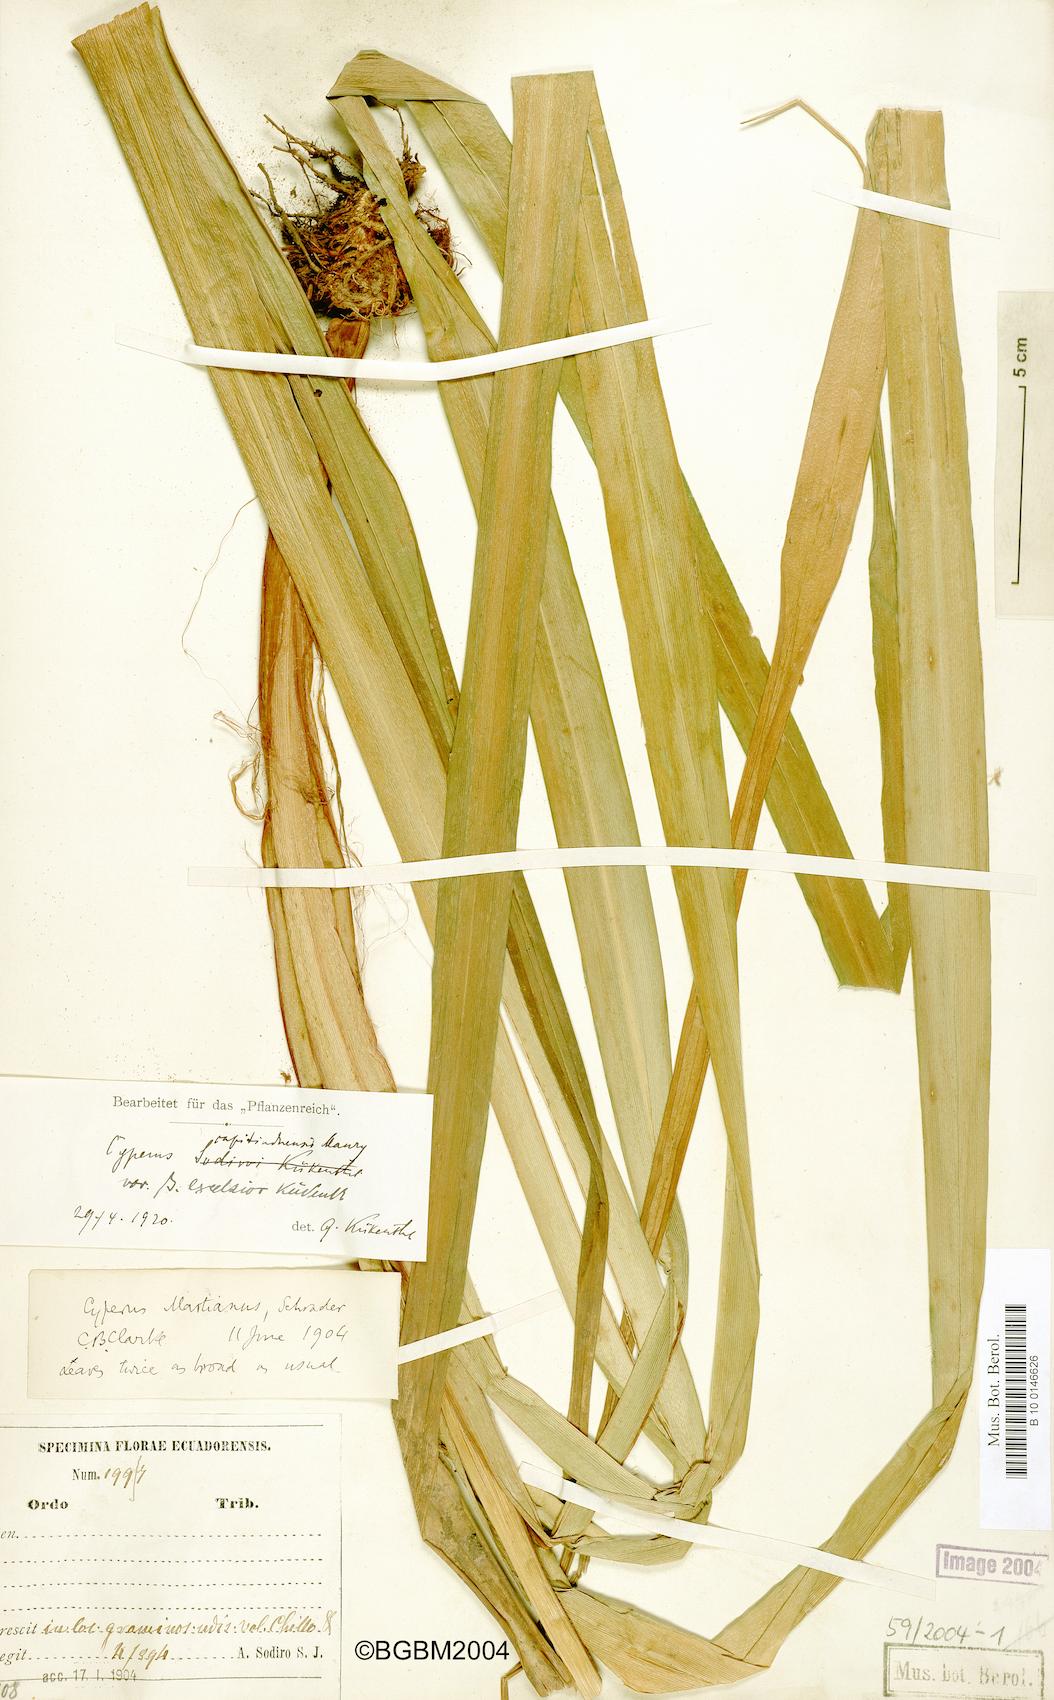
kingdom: Plantae
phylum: Tracheophyta
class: Liliopsida
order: Poales
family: Cyperaceae
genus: Cyperus
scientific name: Cyperus tabina
